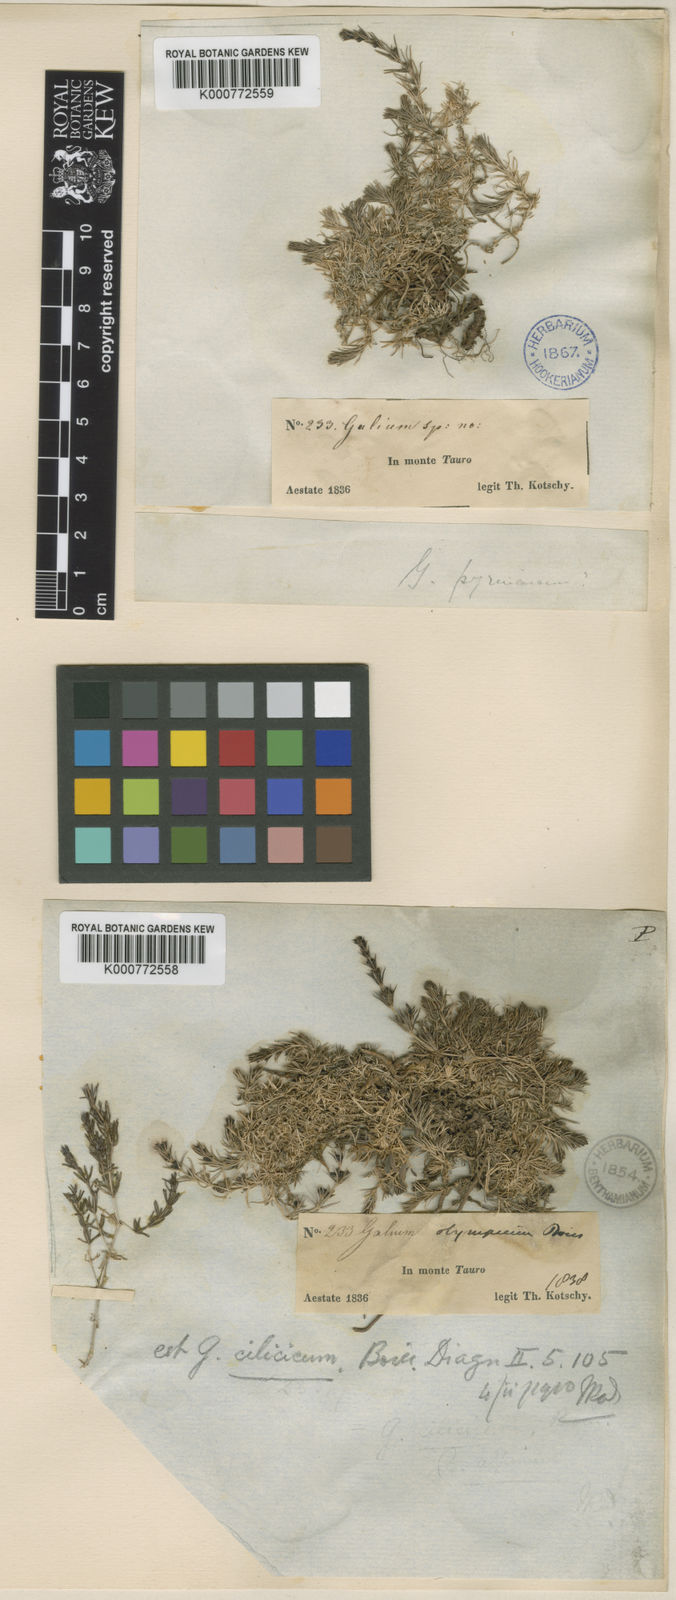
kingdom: Plantae
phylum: Tracheophyta
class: Magnoliopsida
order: Gentianales
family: Rubiaceae
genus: Galium
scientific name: Galium cilicicum
